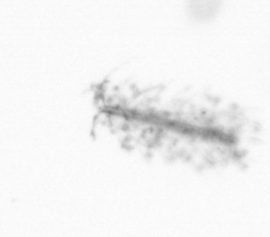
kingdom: Chromista
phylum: Ochrophyta
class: Bacillariophyceae
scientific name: Bacillariophyceae
